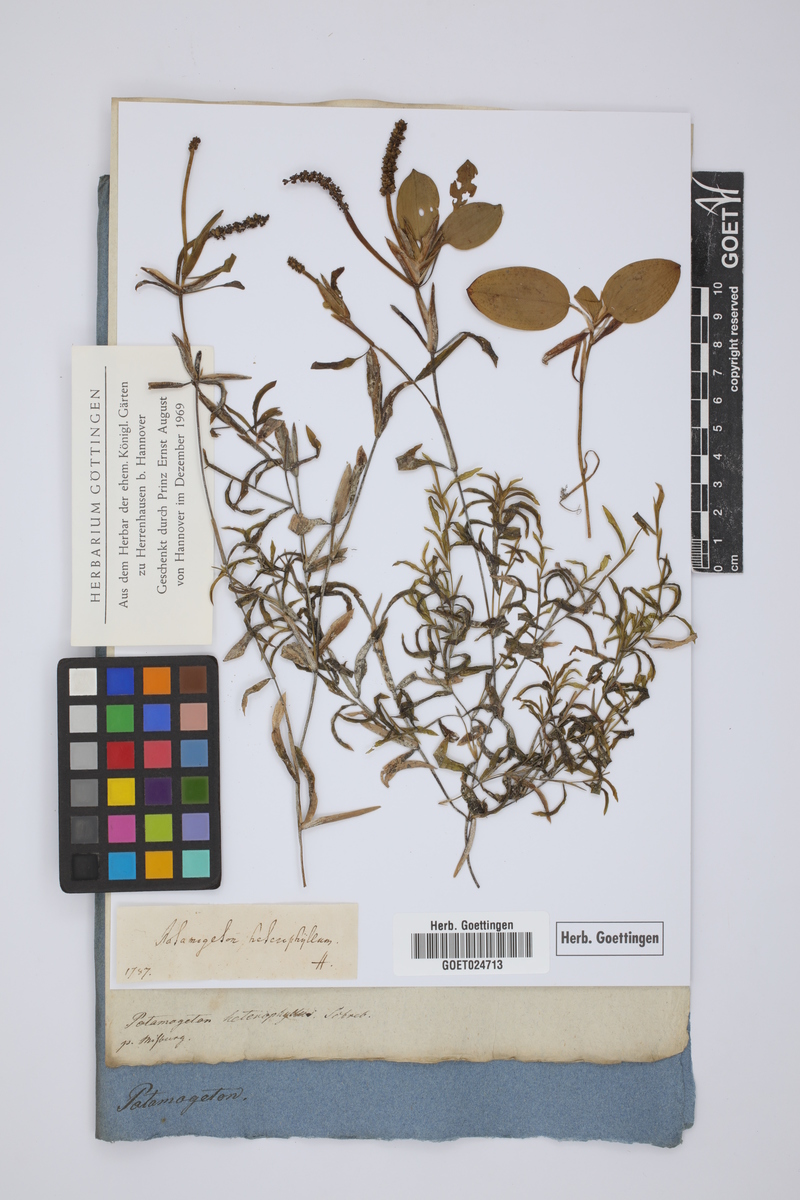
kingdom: Plantae
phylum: Tracheophyta
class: Liliopsida
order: Alismatales
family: Potamogetonaceae
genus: Potamogeton
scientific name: Potamogeton gramineus
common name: Various-leaved pondweed
